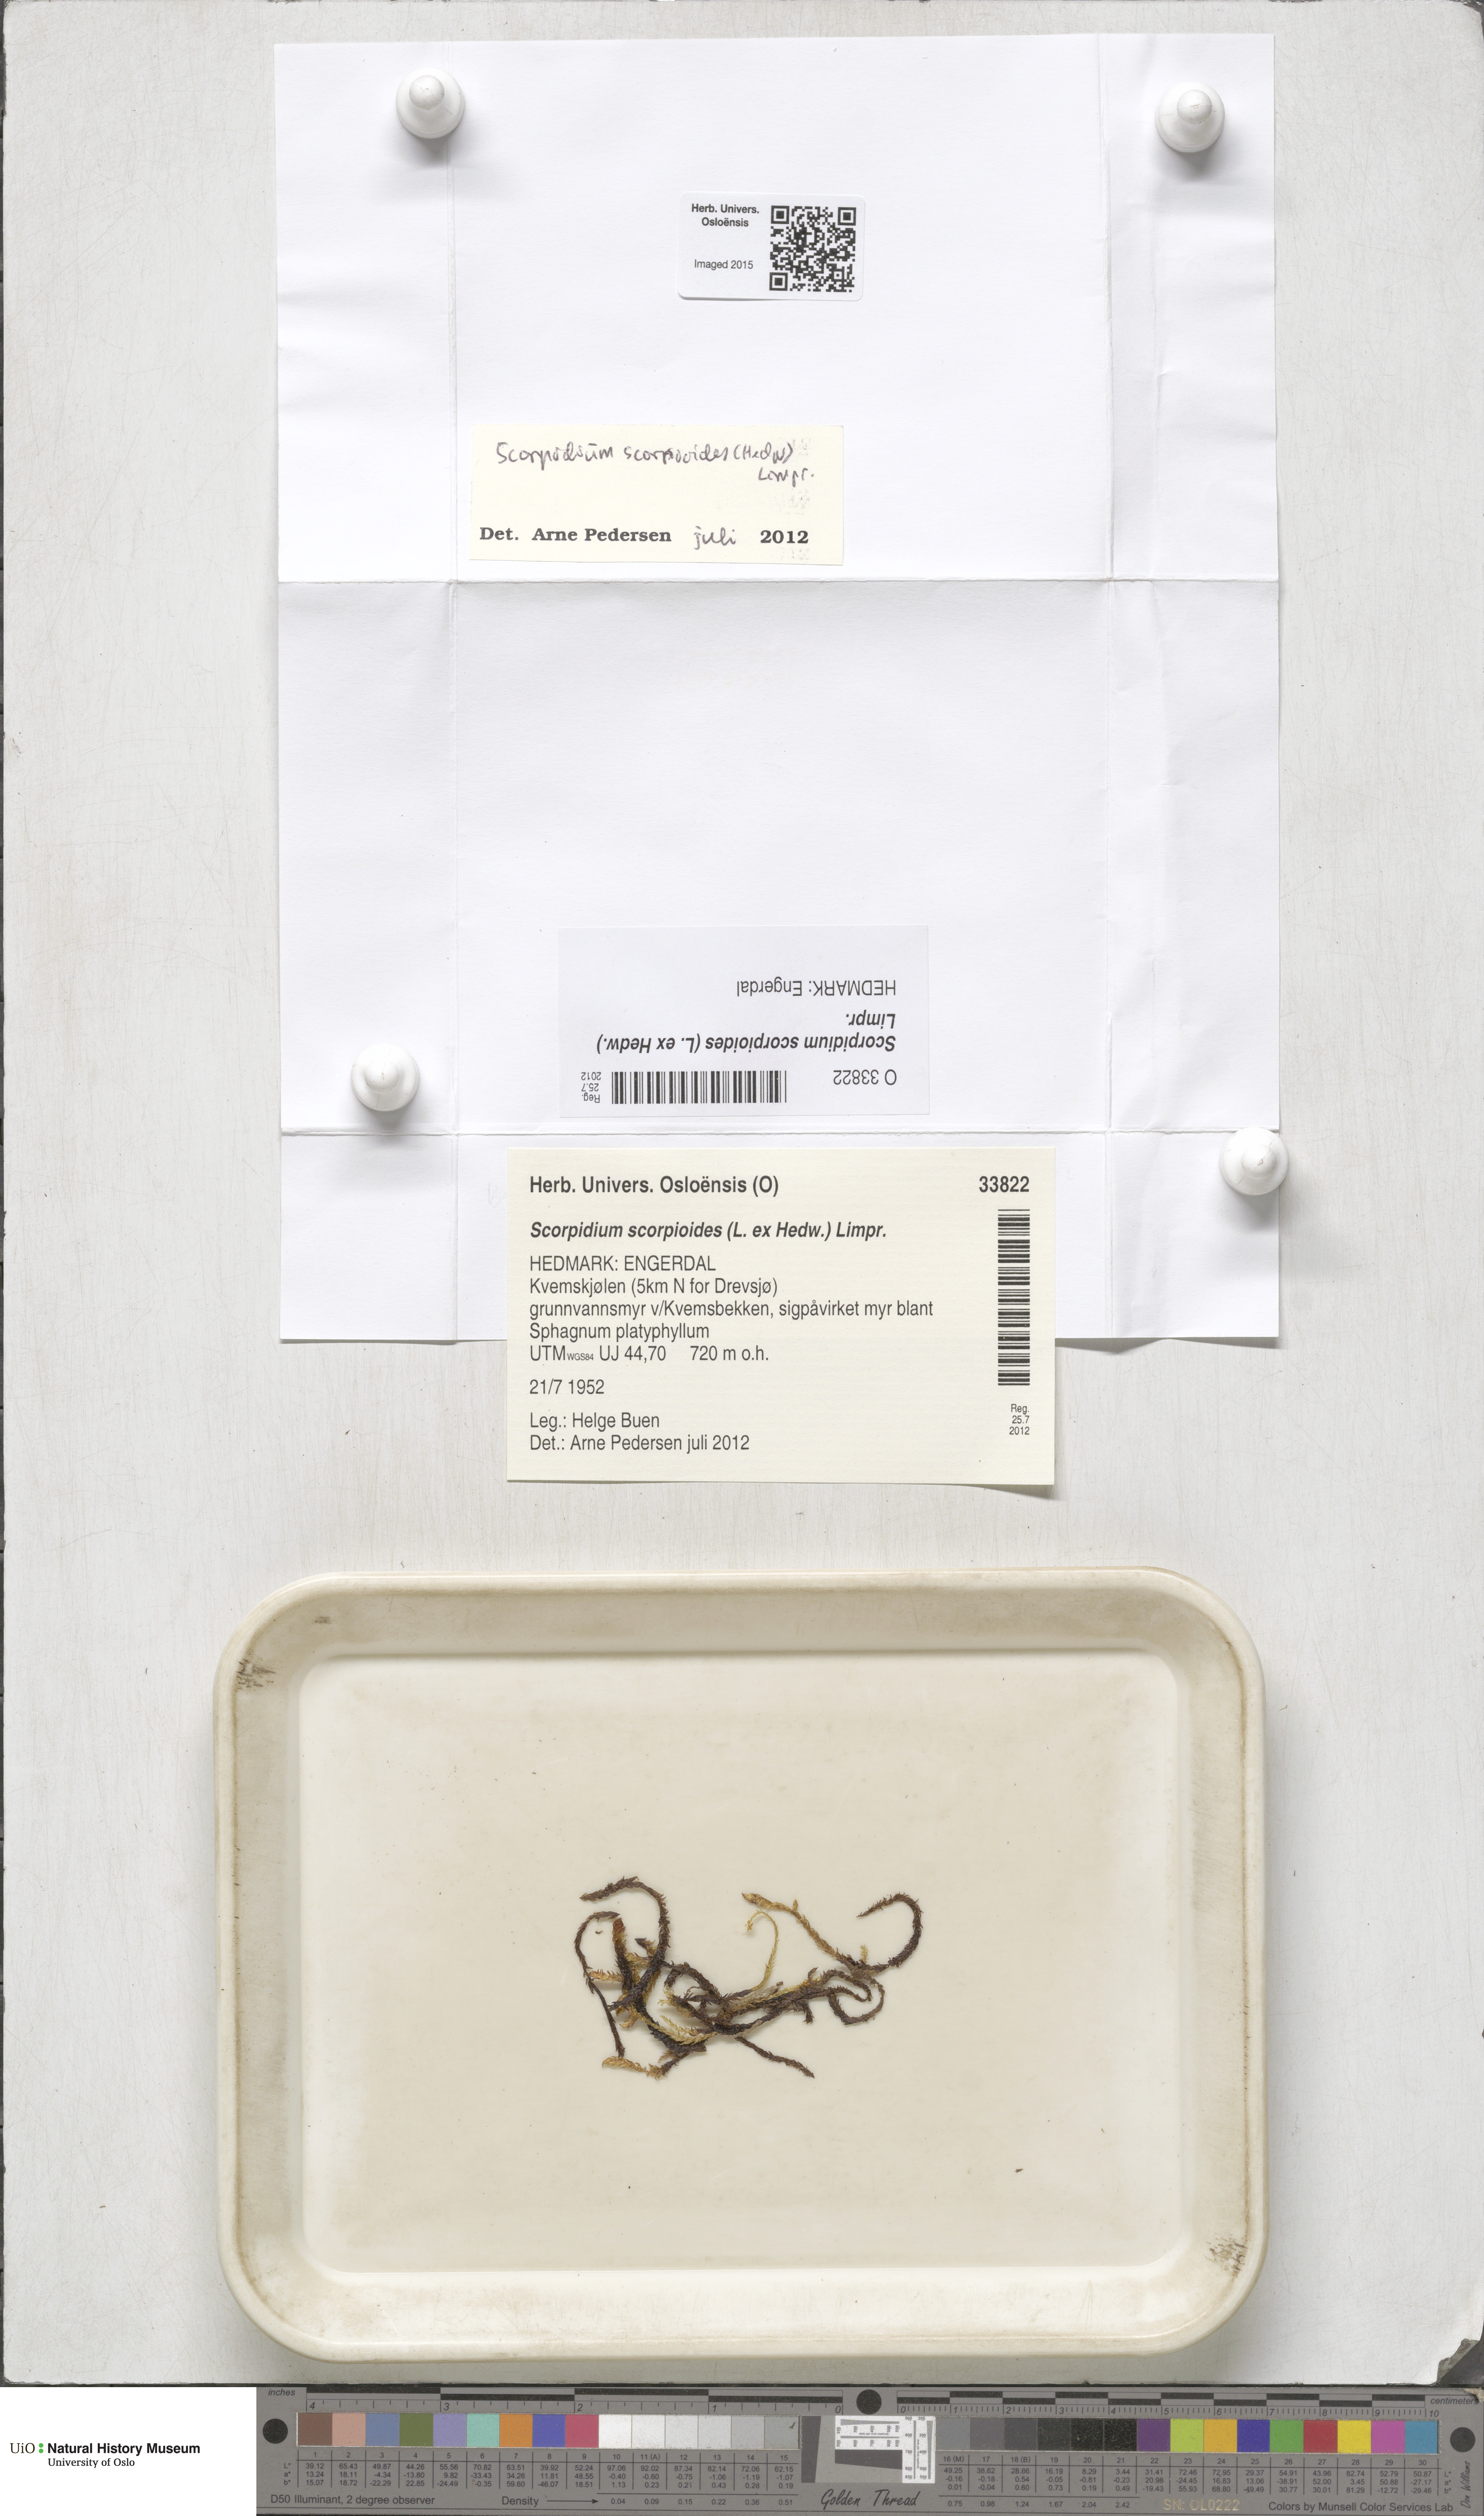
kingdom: Plantae
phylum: Bryophyta
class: Bryopsida
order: Hypnales
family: Scorpidiaceae
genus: Scorpidium
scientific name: Scorpidium scorpioides
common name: Hooked scorpion moss
